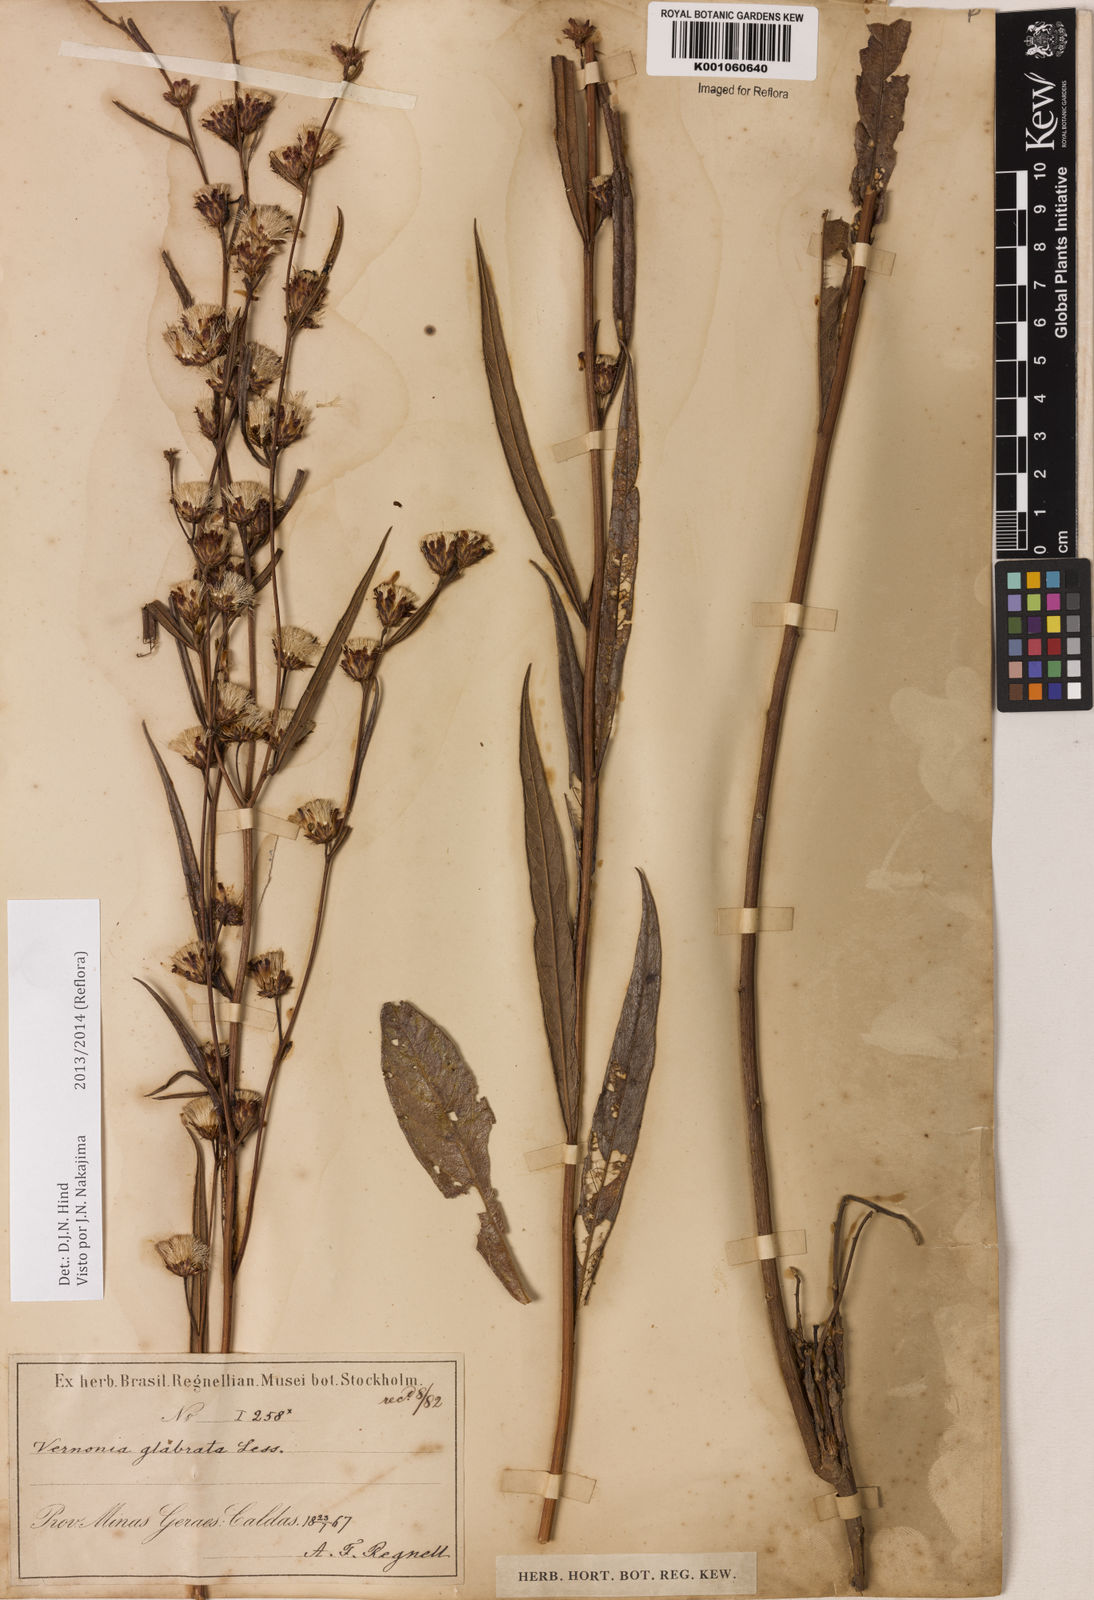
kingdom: Plantae
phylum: Tracheophyta
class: Magnoliopsida
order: Asterales
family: Asteraceae
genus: Lessingianthus
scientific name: Lessingianthus glabratus
